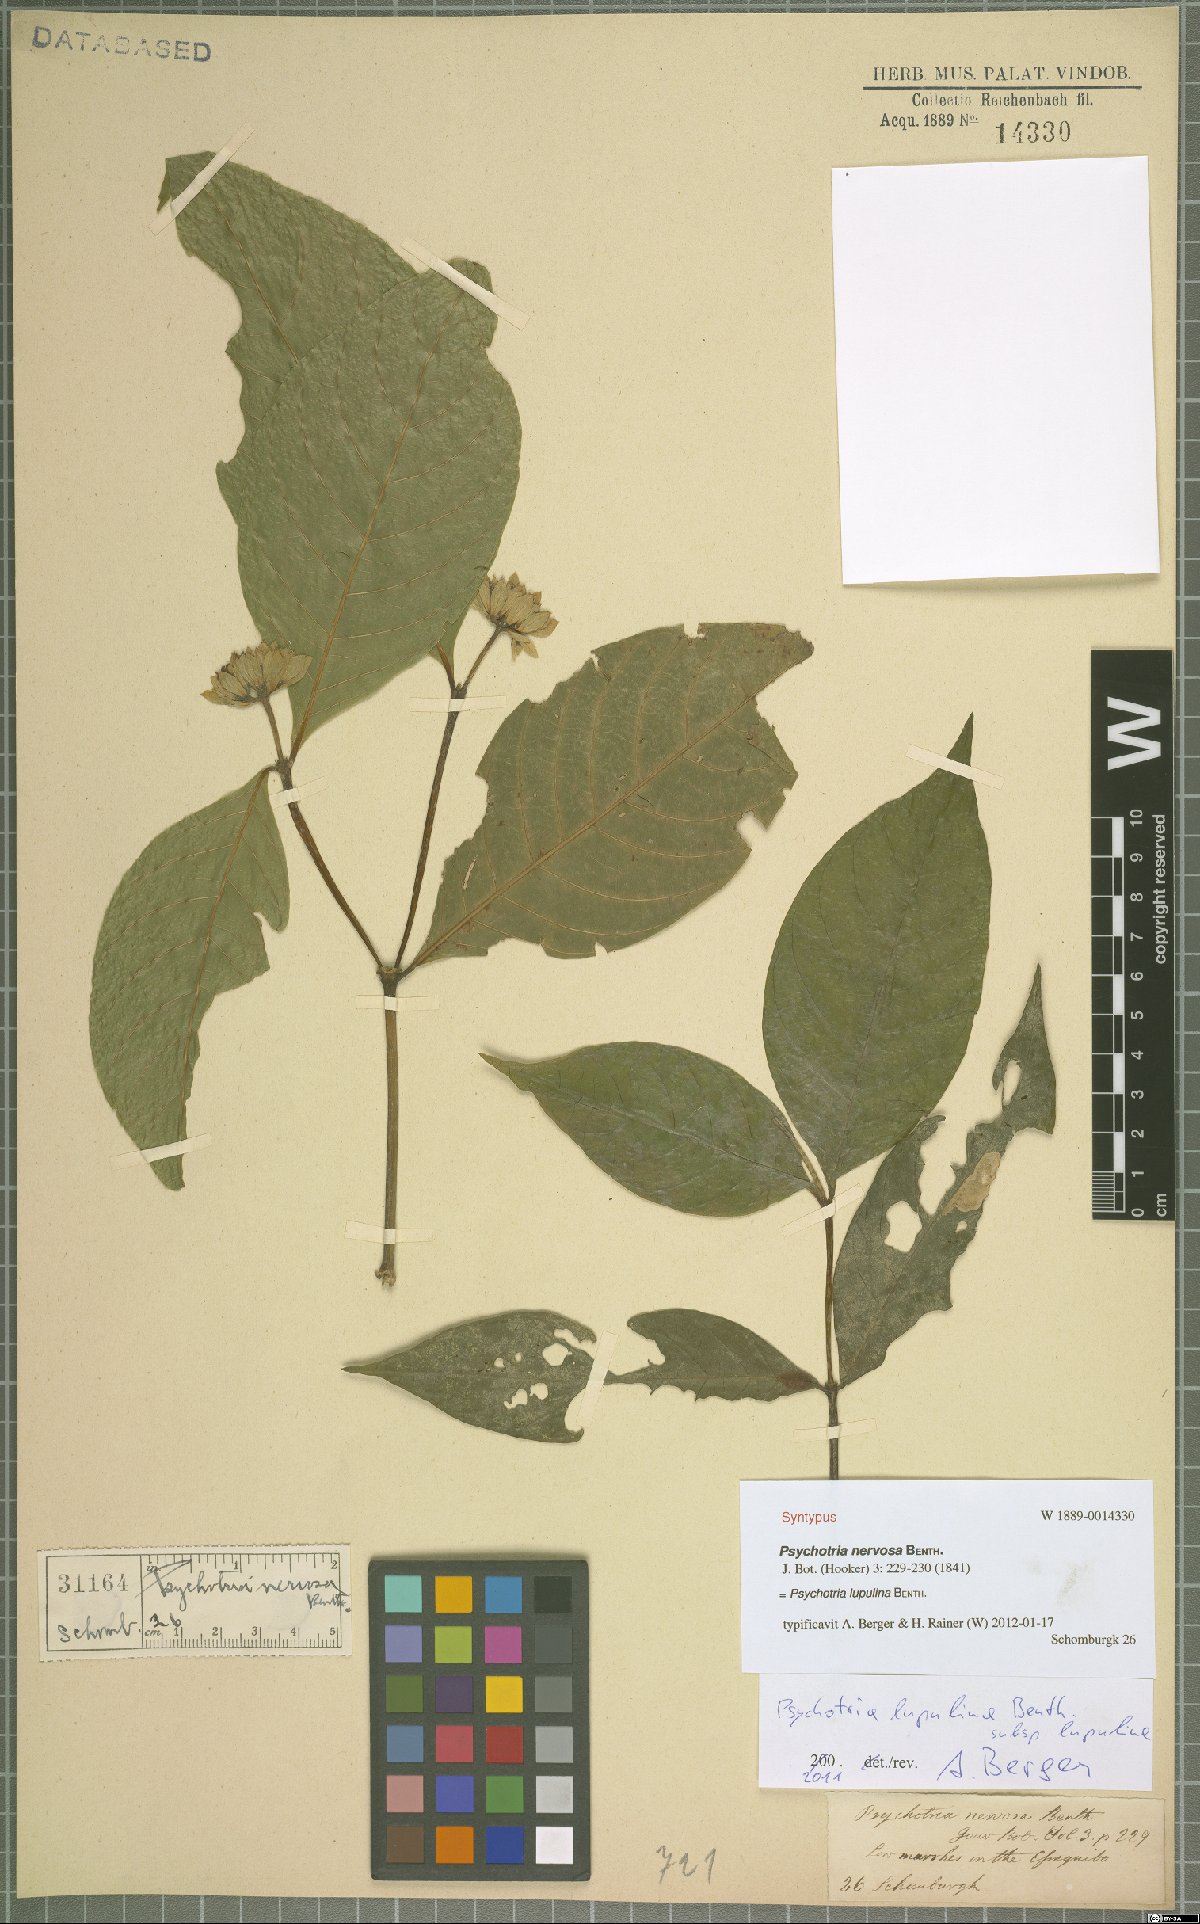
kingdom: Plantae
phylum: Tracheophyta
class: Magnoliopsida
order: Gentianales
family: Rubiaceae
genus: Palicourea
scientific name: Palicourea justiciifolia
